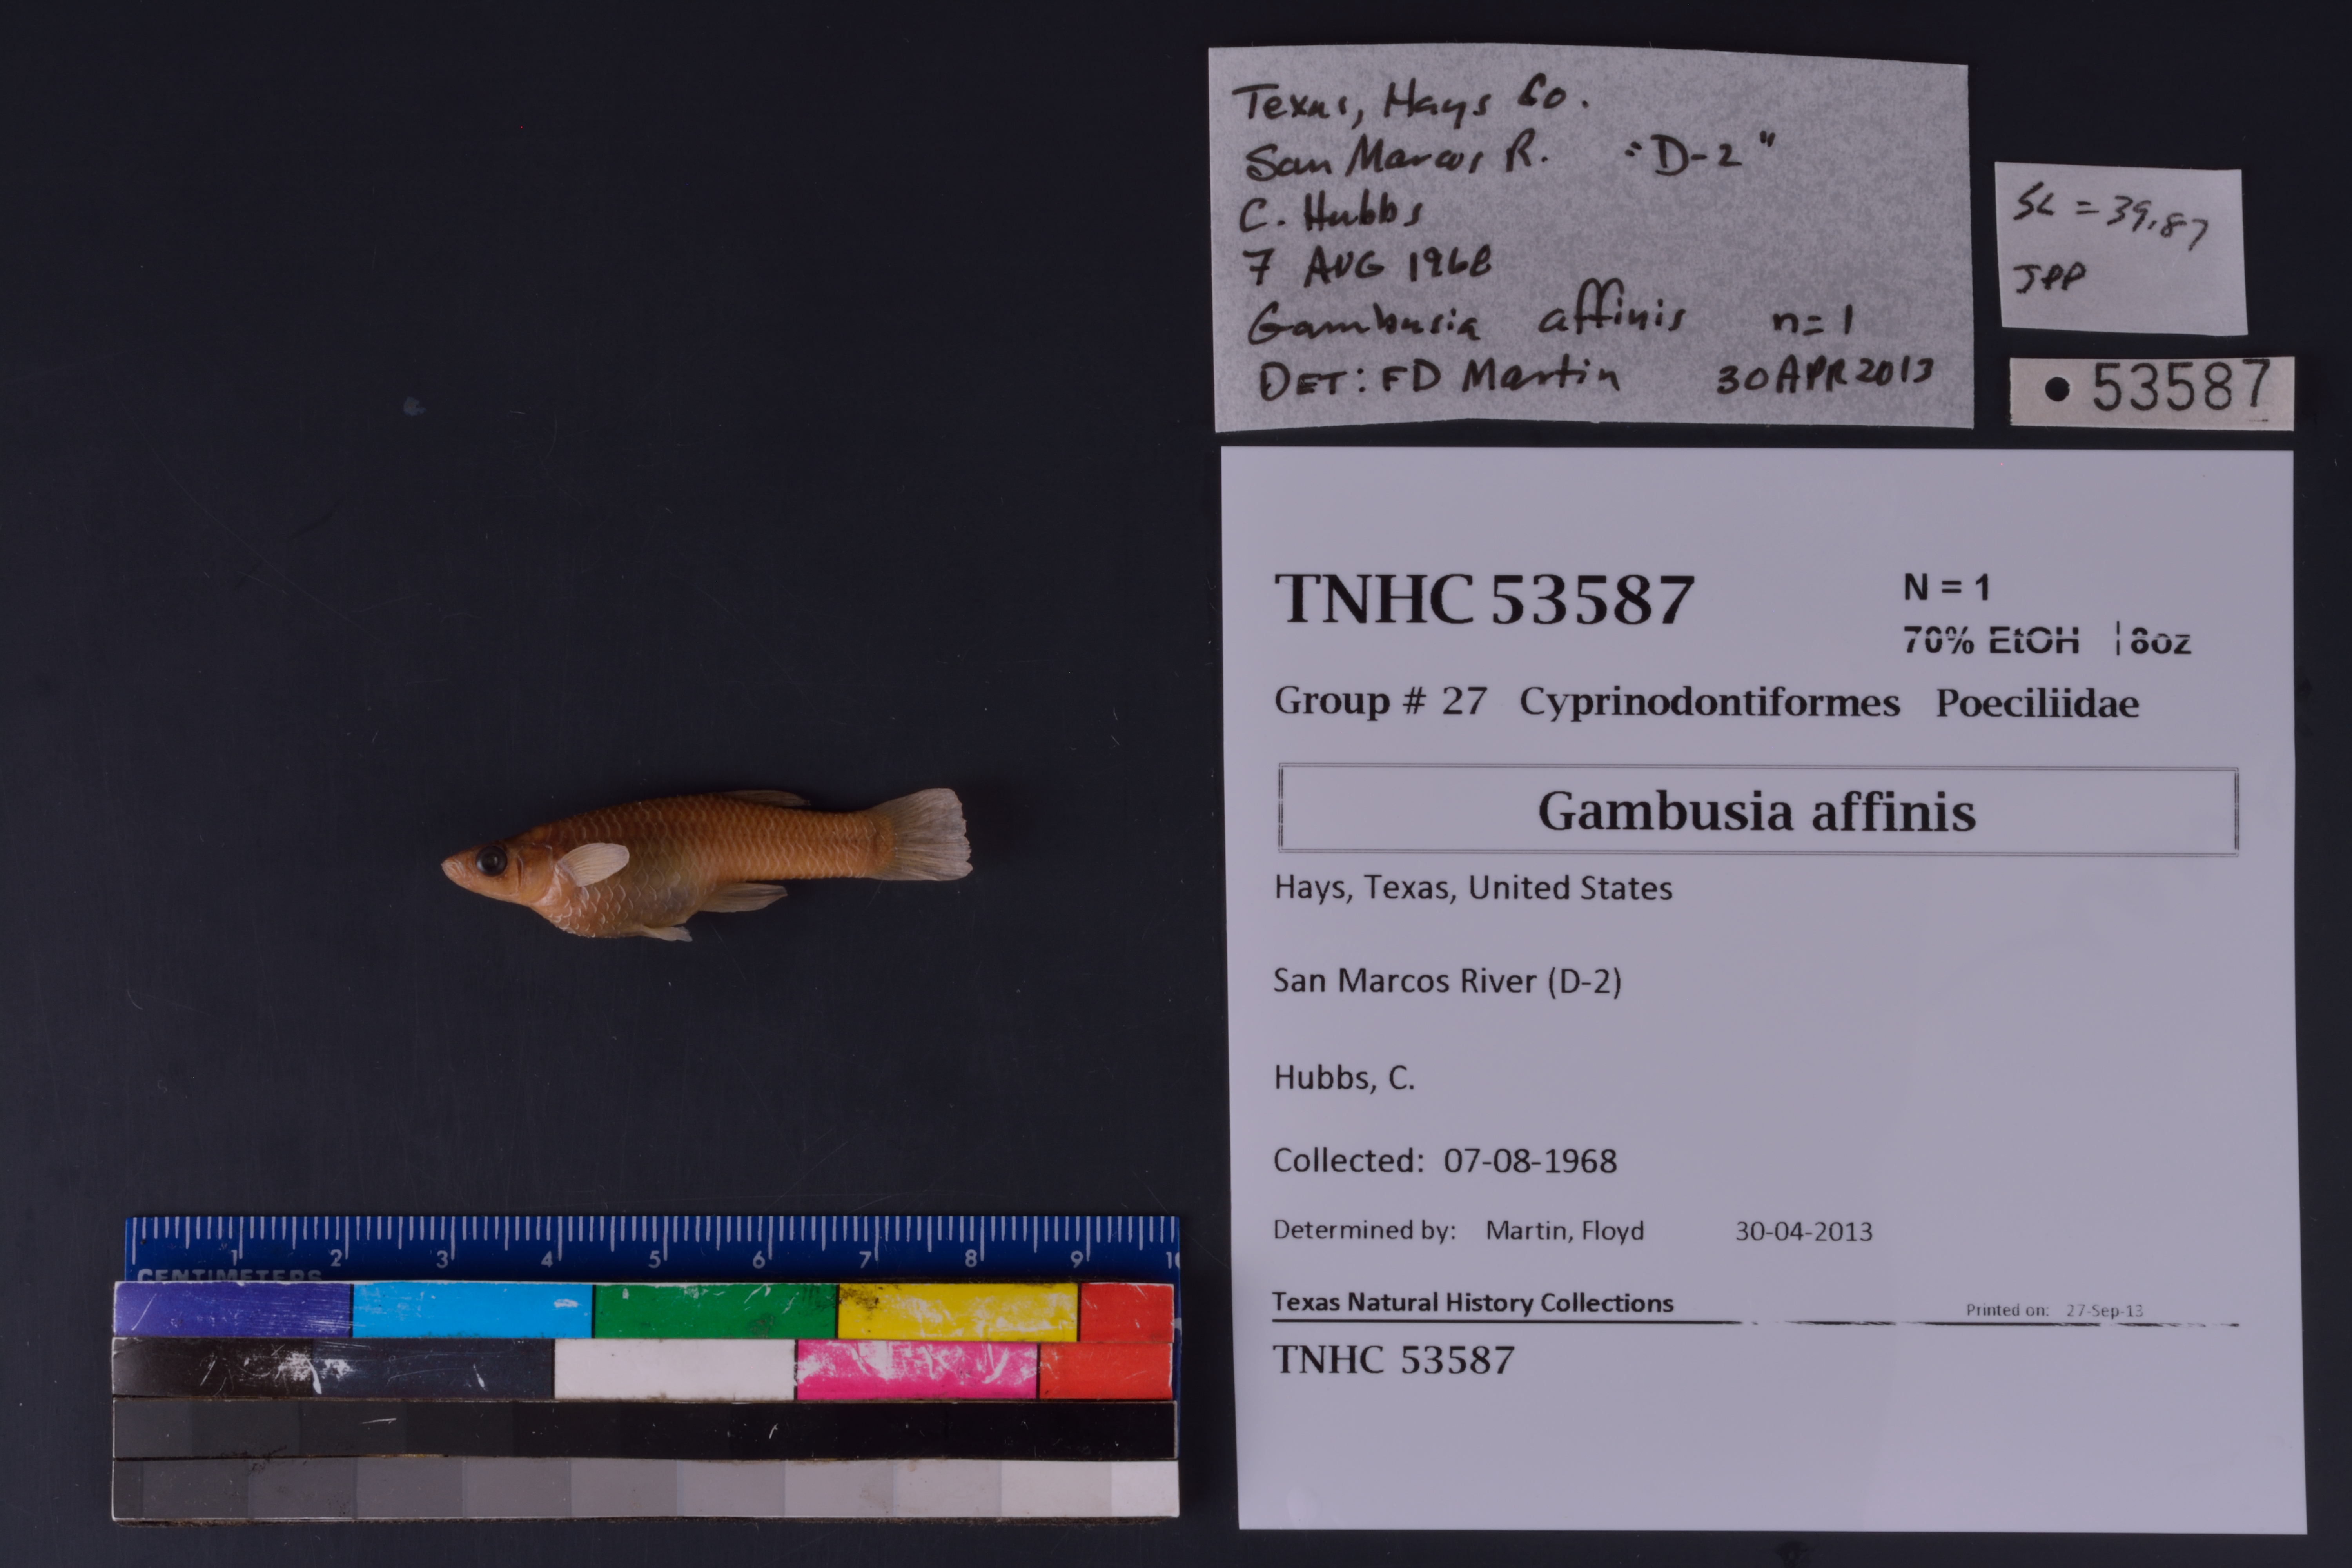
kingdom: Animalia
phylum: Chordata
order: Cyprinodontiformes
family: Poeciliidae
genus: Gambusia
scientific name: Gambusia affinis
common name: Mosquitofish
